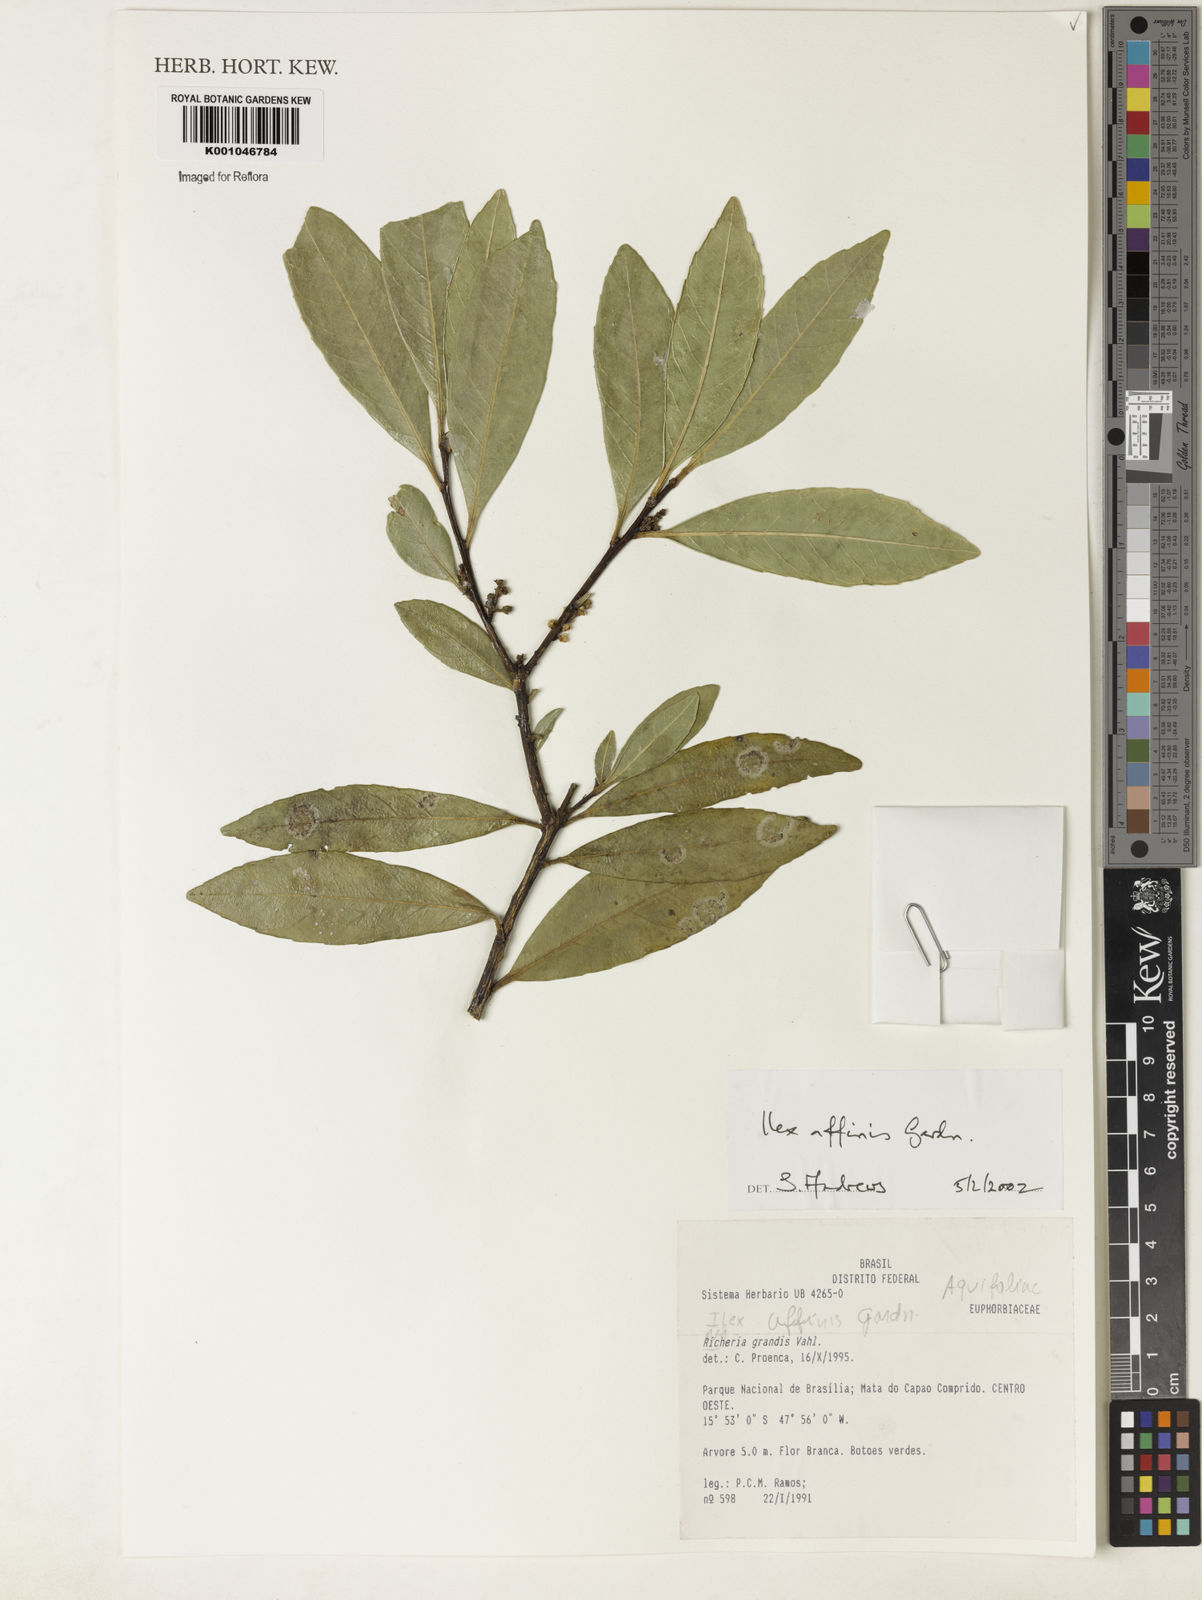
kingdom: Plantae
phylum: Tracheophyta
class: Magnoliopsida
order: Aquifoliales
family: Aquifoliaceae
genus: Ilex
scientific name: Ilex affinis
